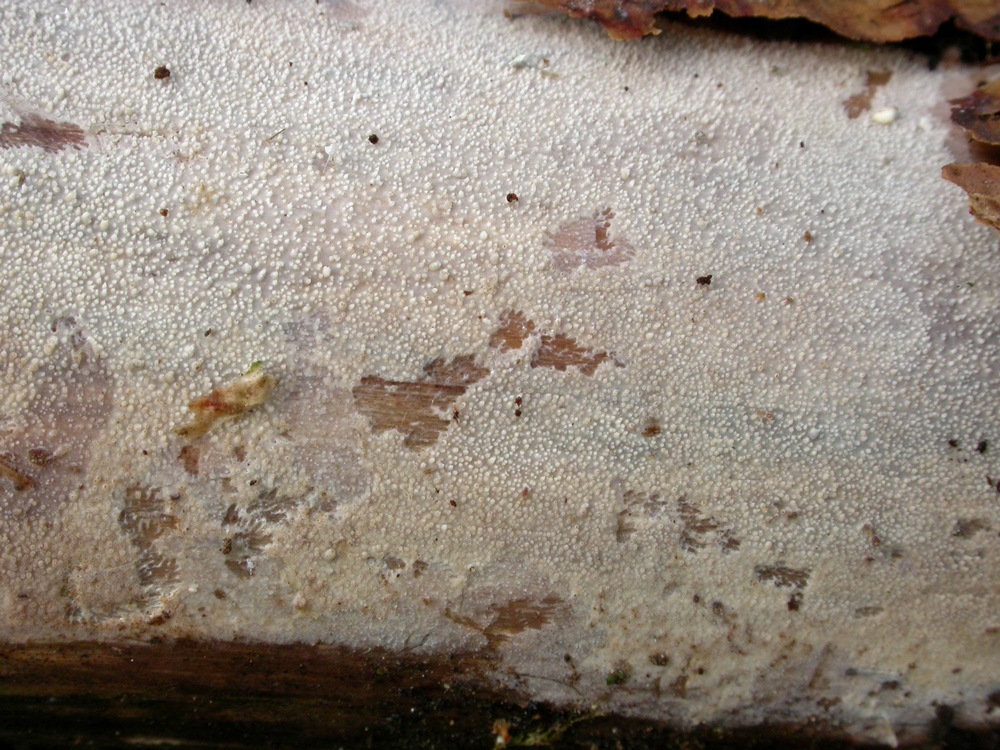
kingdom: Fungi
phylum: Basidiomycota
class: Agaricomycetes
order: Hymenochaetales
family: Rickenellaceae
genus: Resinicium
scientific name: Resinicium bicolor
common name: almindelig vokstand
